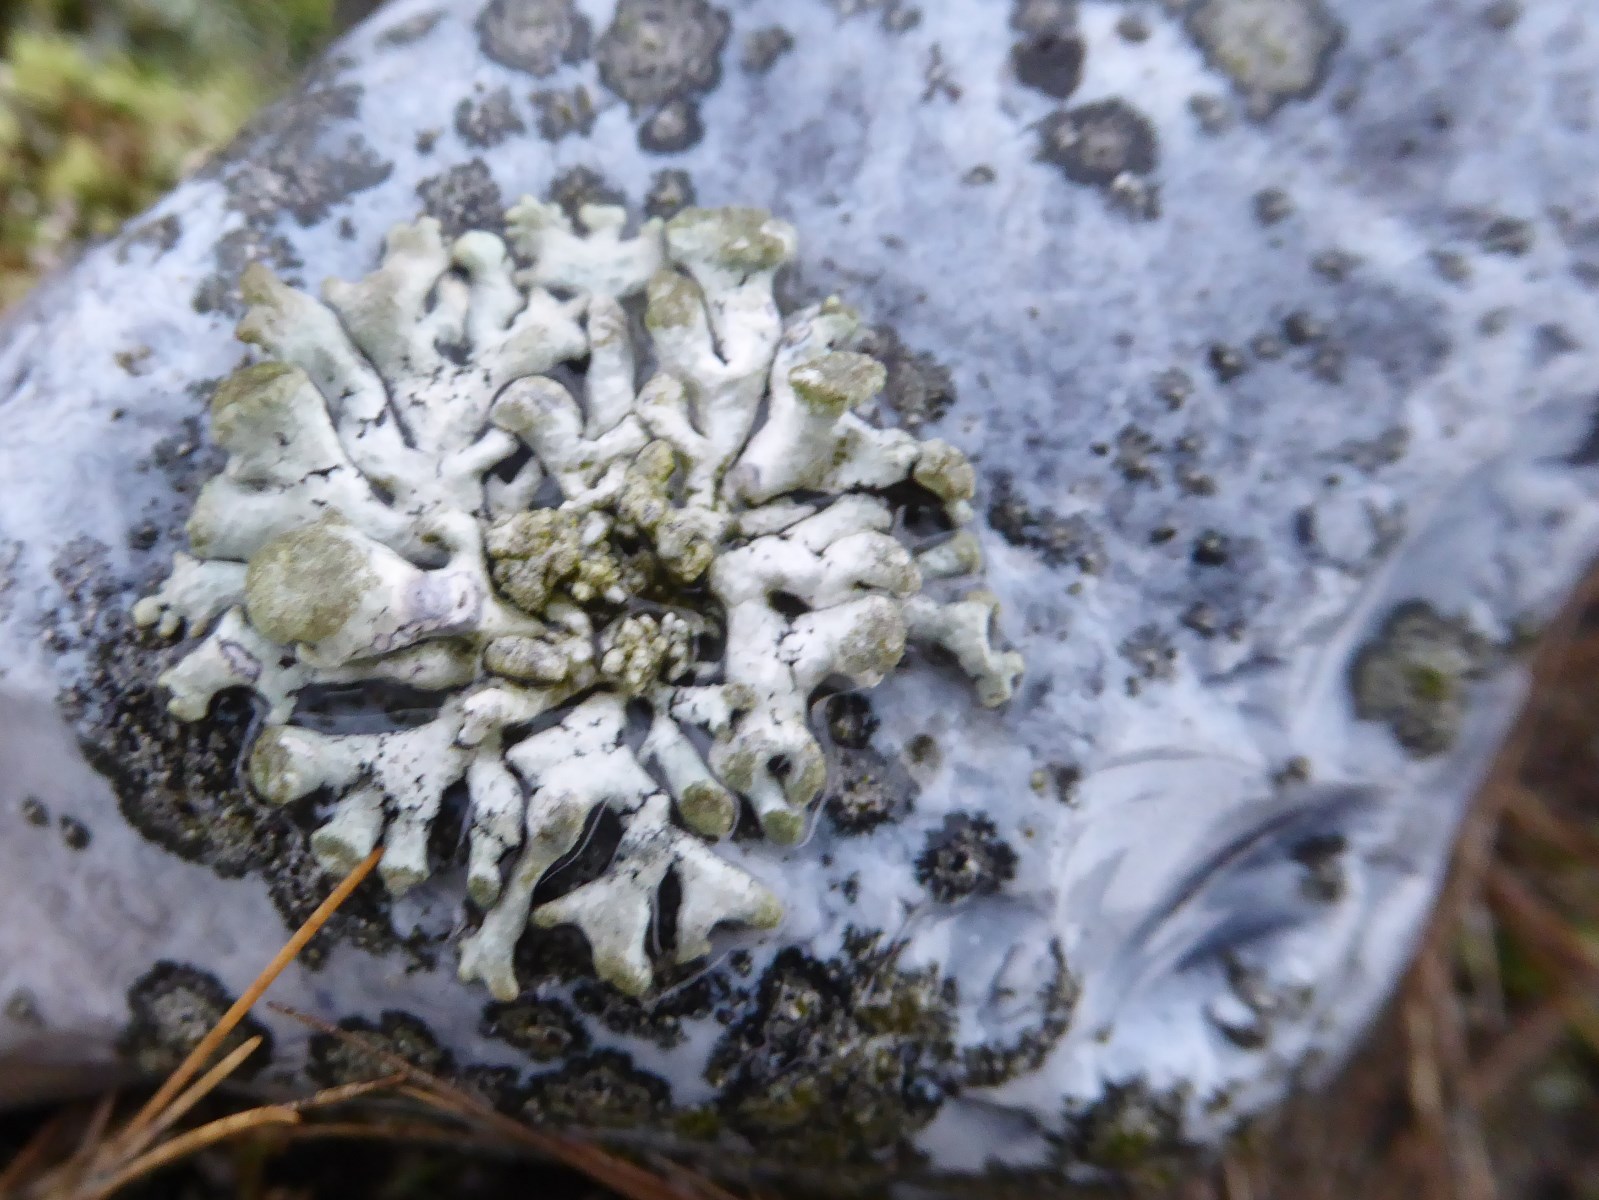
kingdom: Fungi
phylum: Ascomycota
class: Lecanoromycetes
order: Lecanorales
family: Parmeliaceae
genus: Hypogymnia
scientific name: Hypogymnia tubulosa
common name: finger-kvistlav
